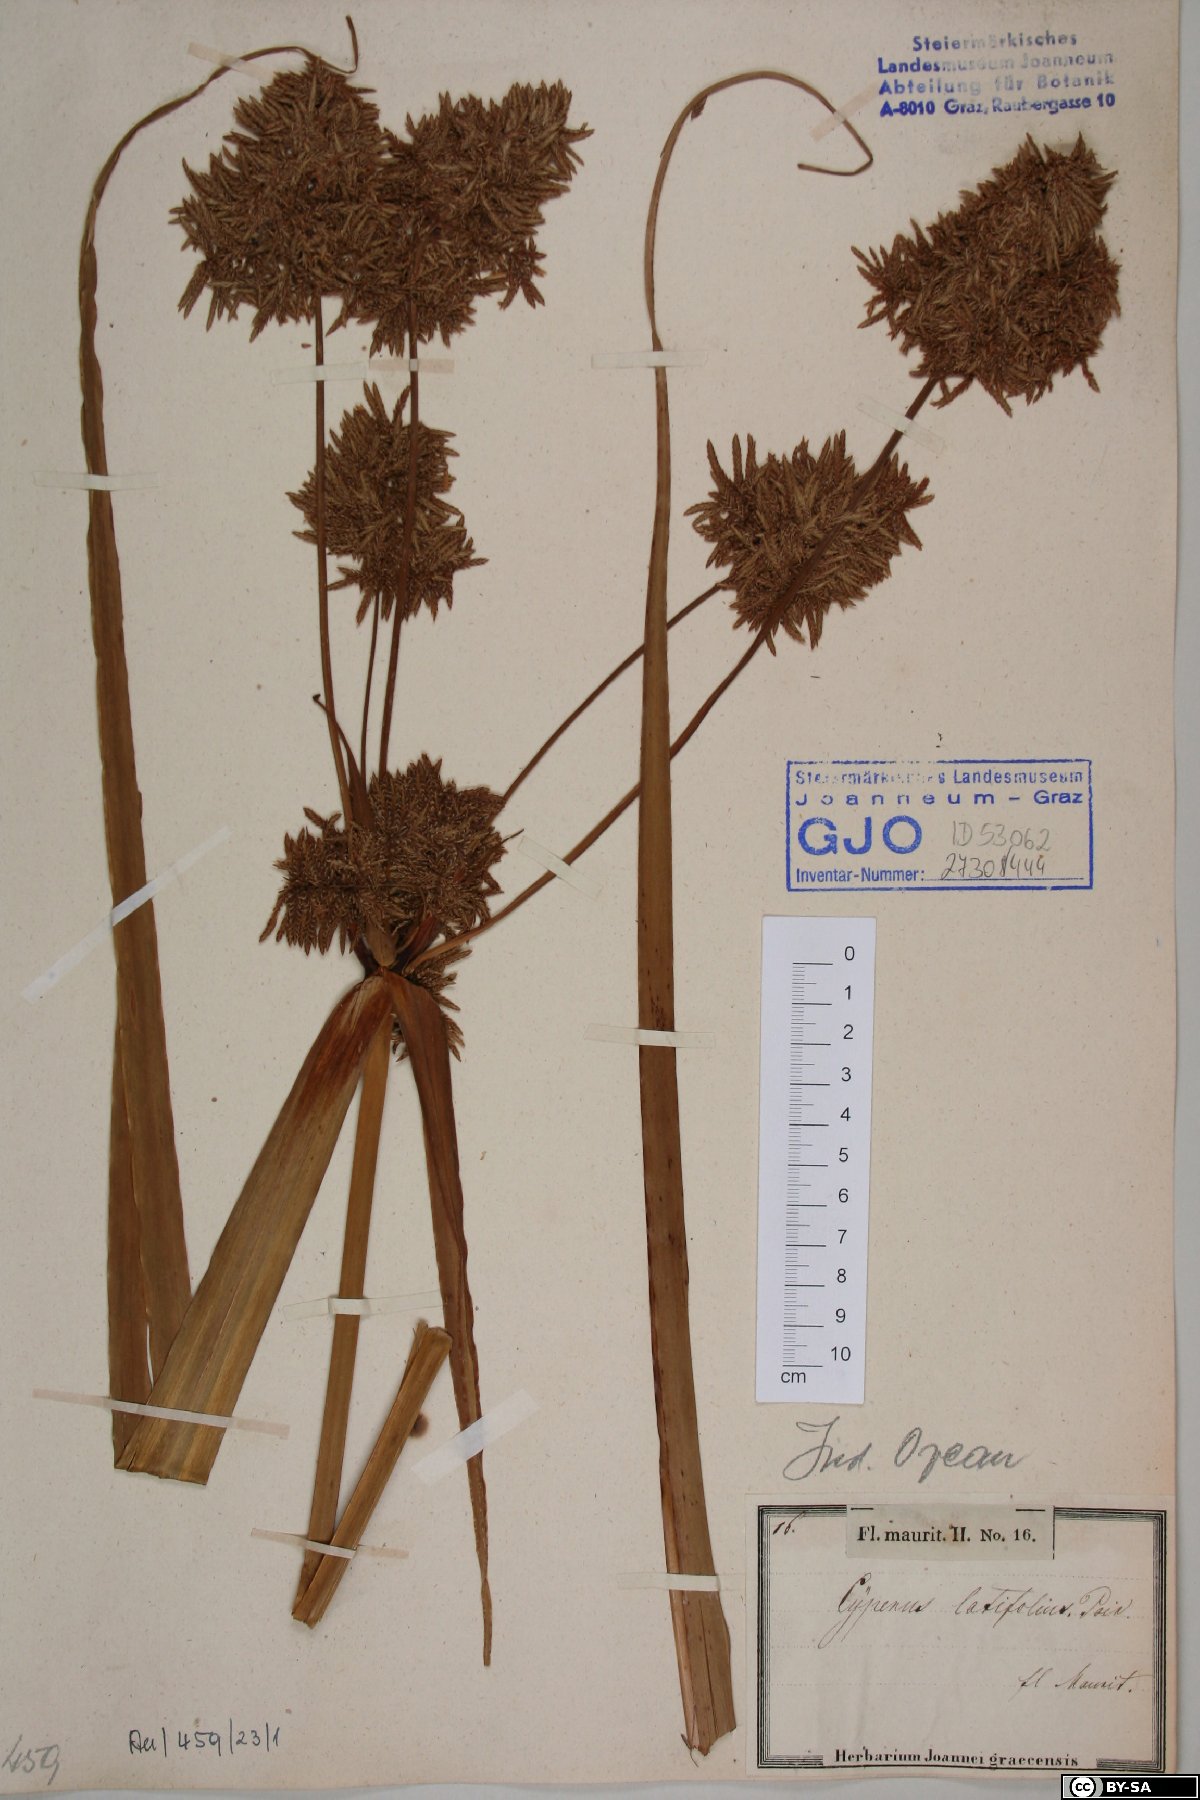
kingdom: Plantae
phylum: Tracheophyta
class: Liliopsida
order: Poales
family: Cyperaceae
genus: Cyperus
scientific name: Cyperus latifolius
